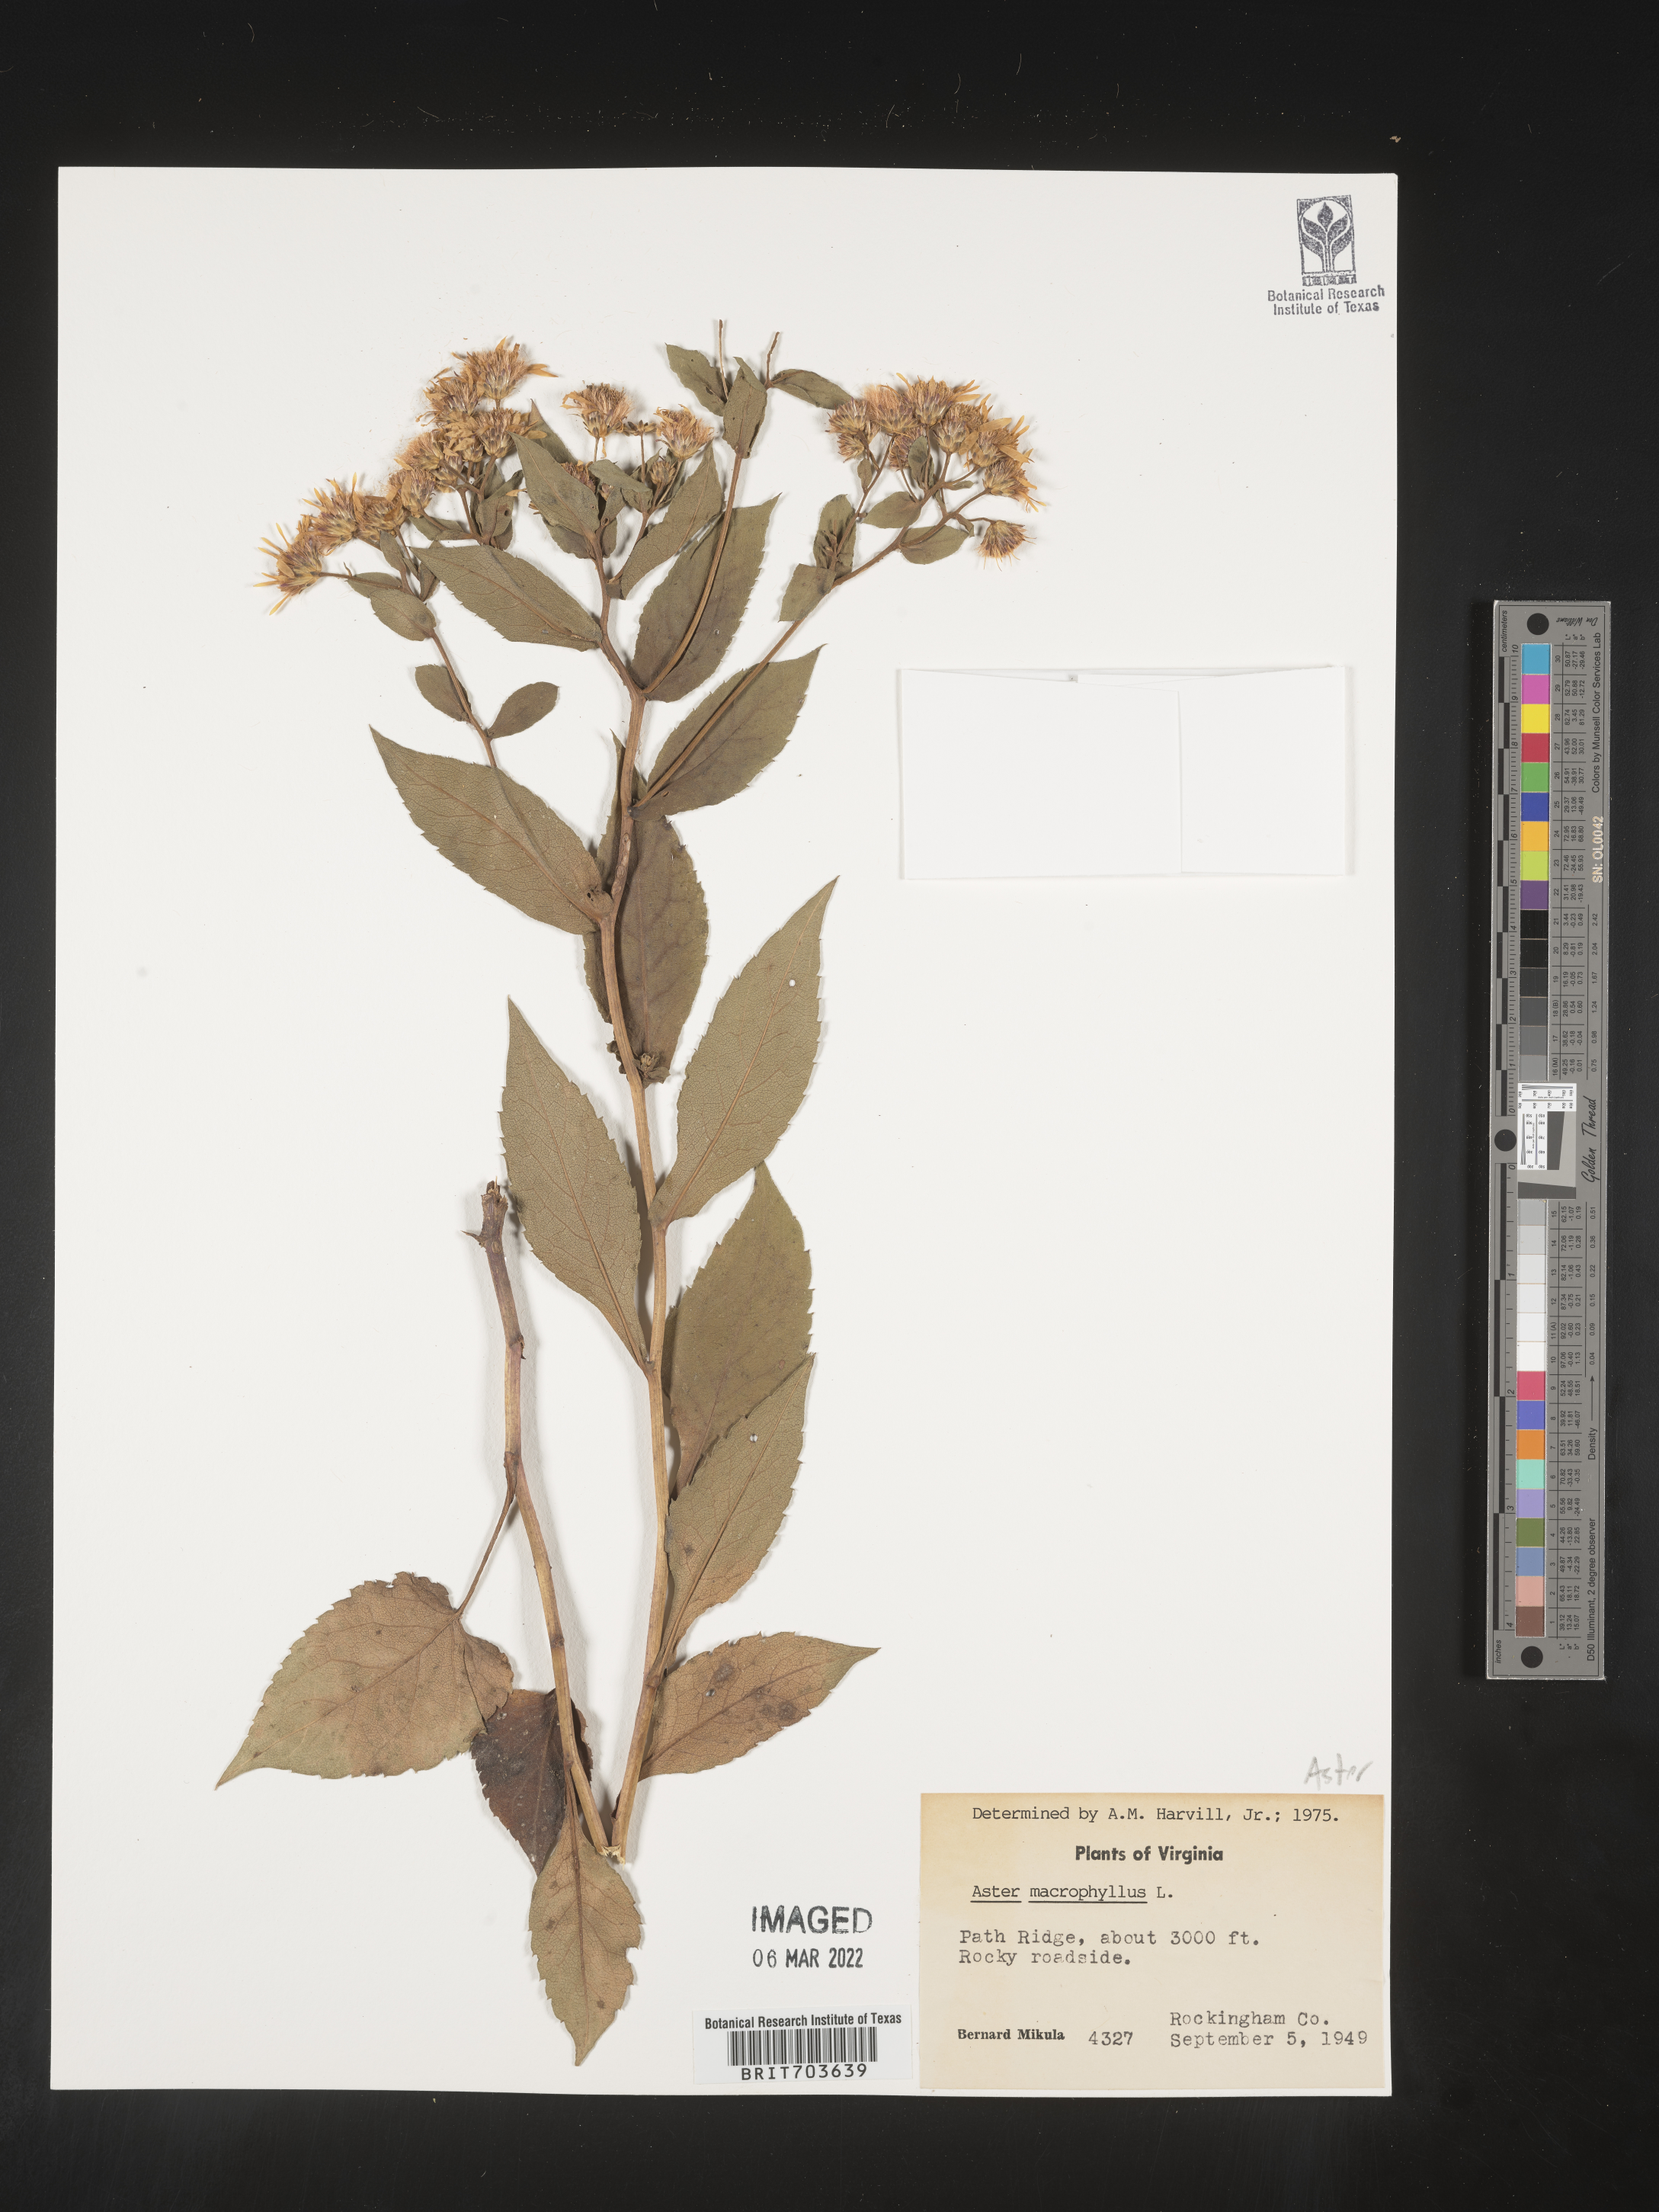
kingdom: Plantae
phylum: Tracheophyta
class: Magnoliopsida
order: Asterales
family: Asteraceae
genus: Eurybia
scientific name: Eurybia macrophylla
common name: Big-leaved aster
